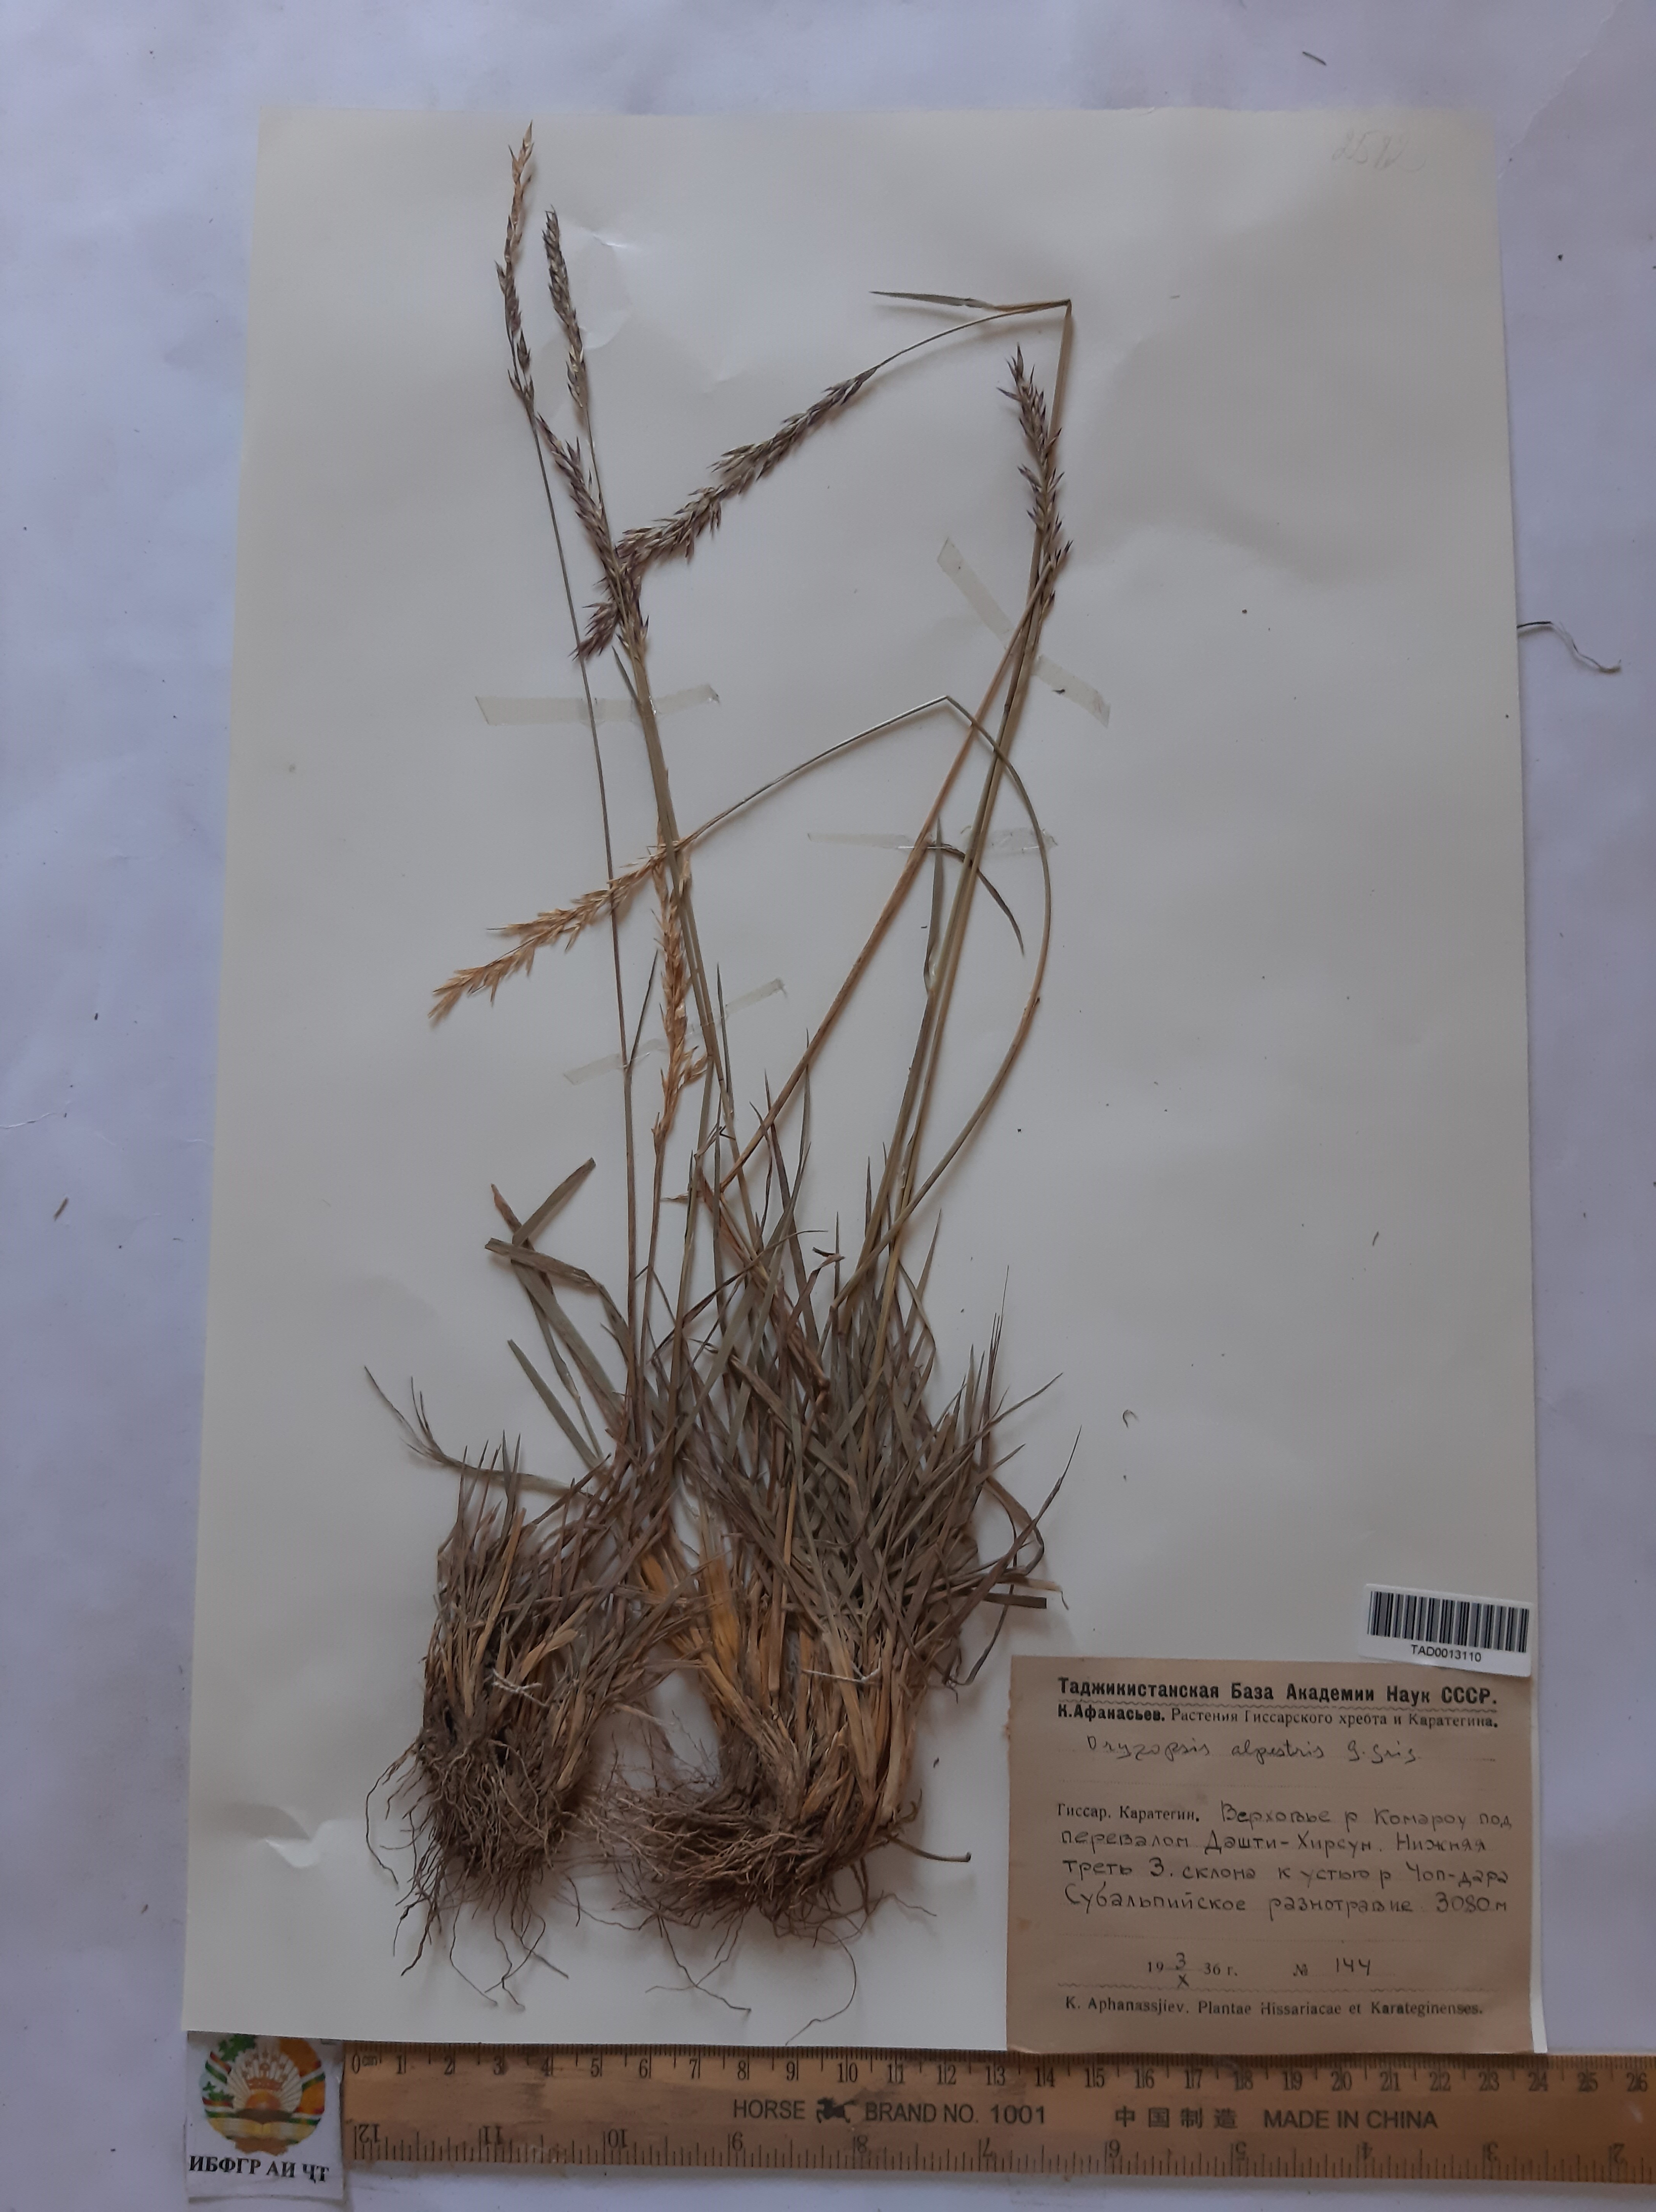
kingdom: Plantae
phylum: Tracheophyta
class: Liliopsida
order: Poales
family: Poaceae
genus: Piptatherum
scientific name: Piptatherum alpestre
